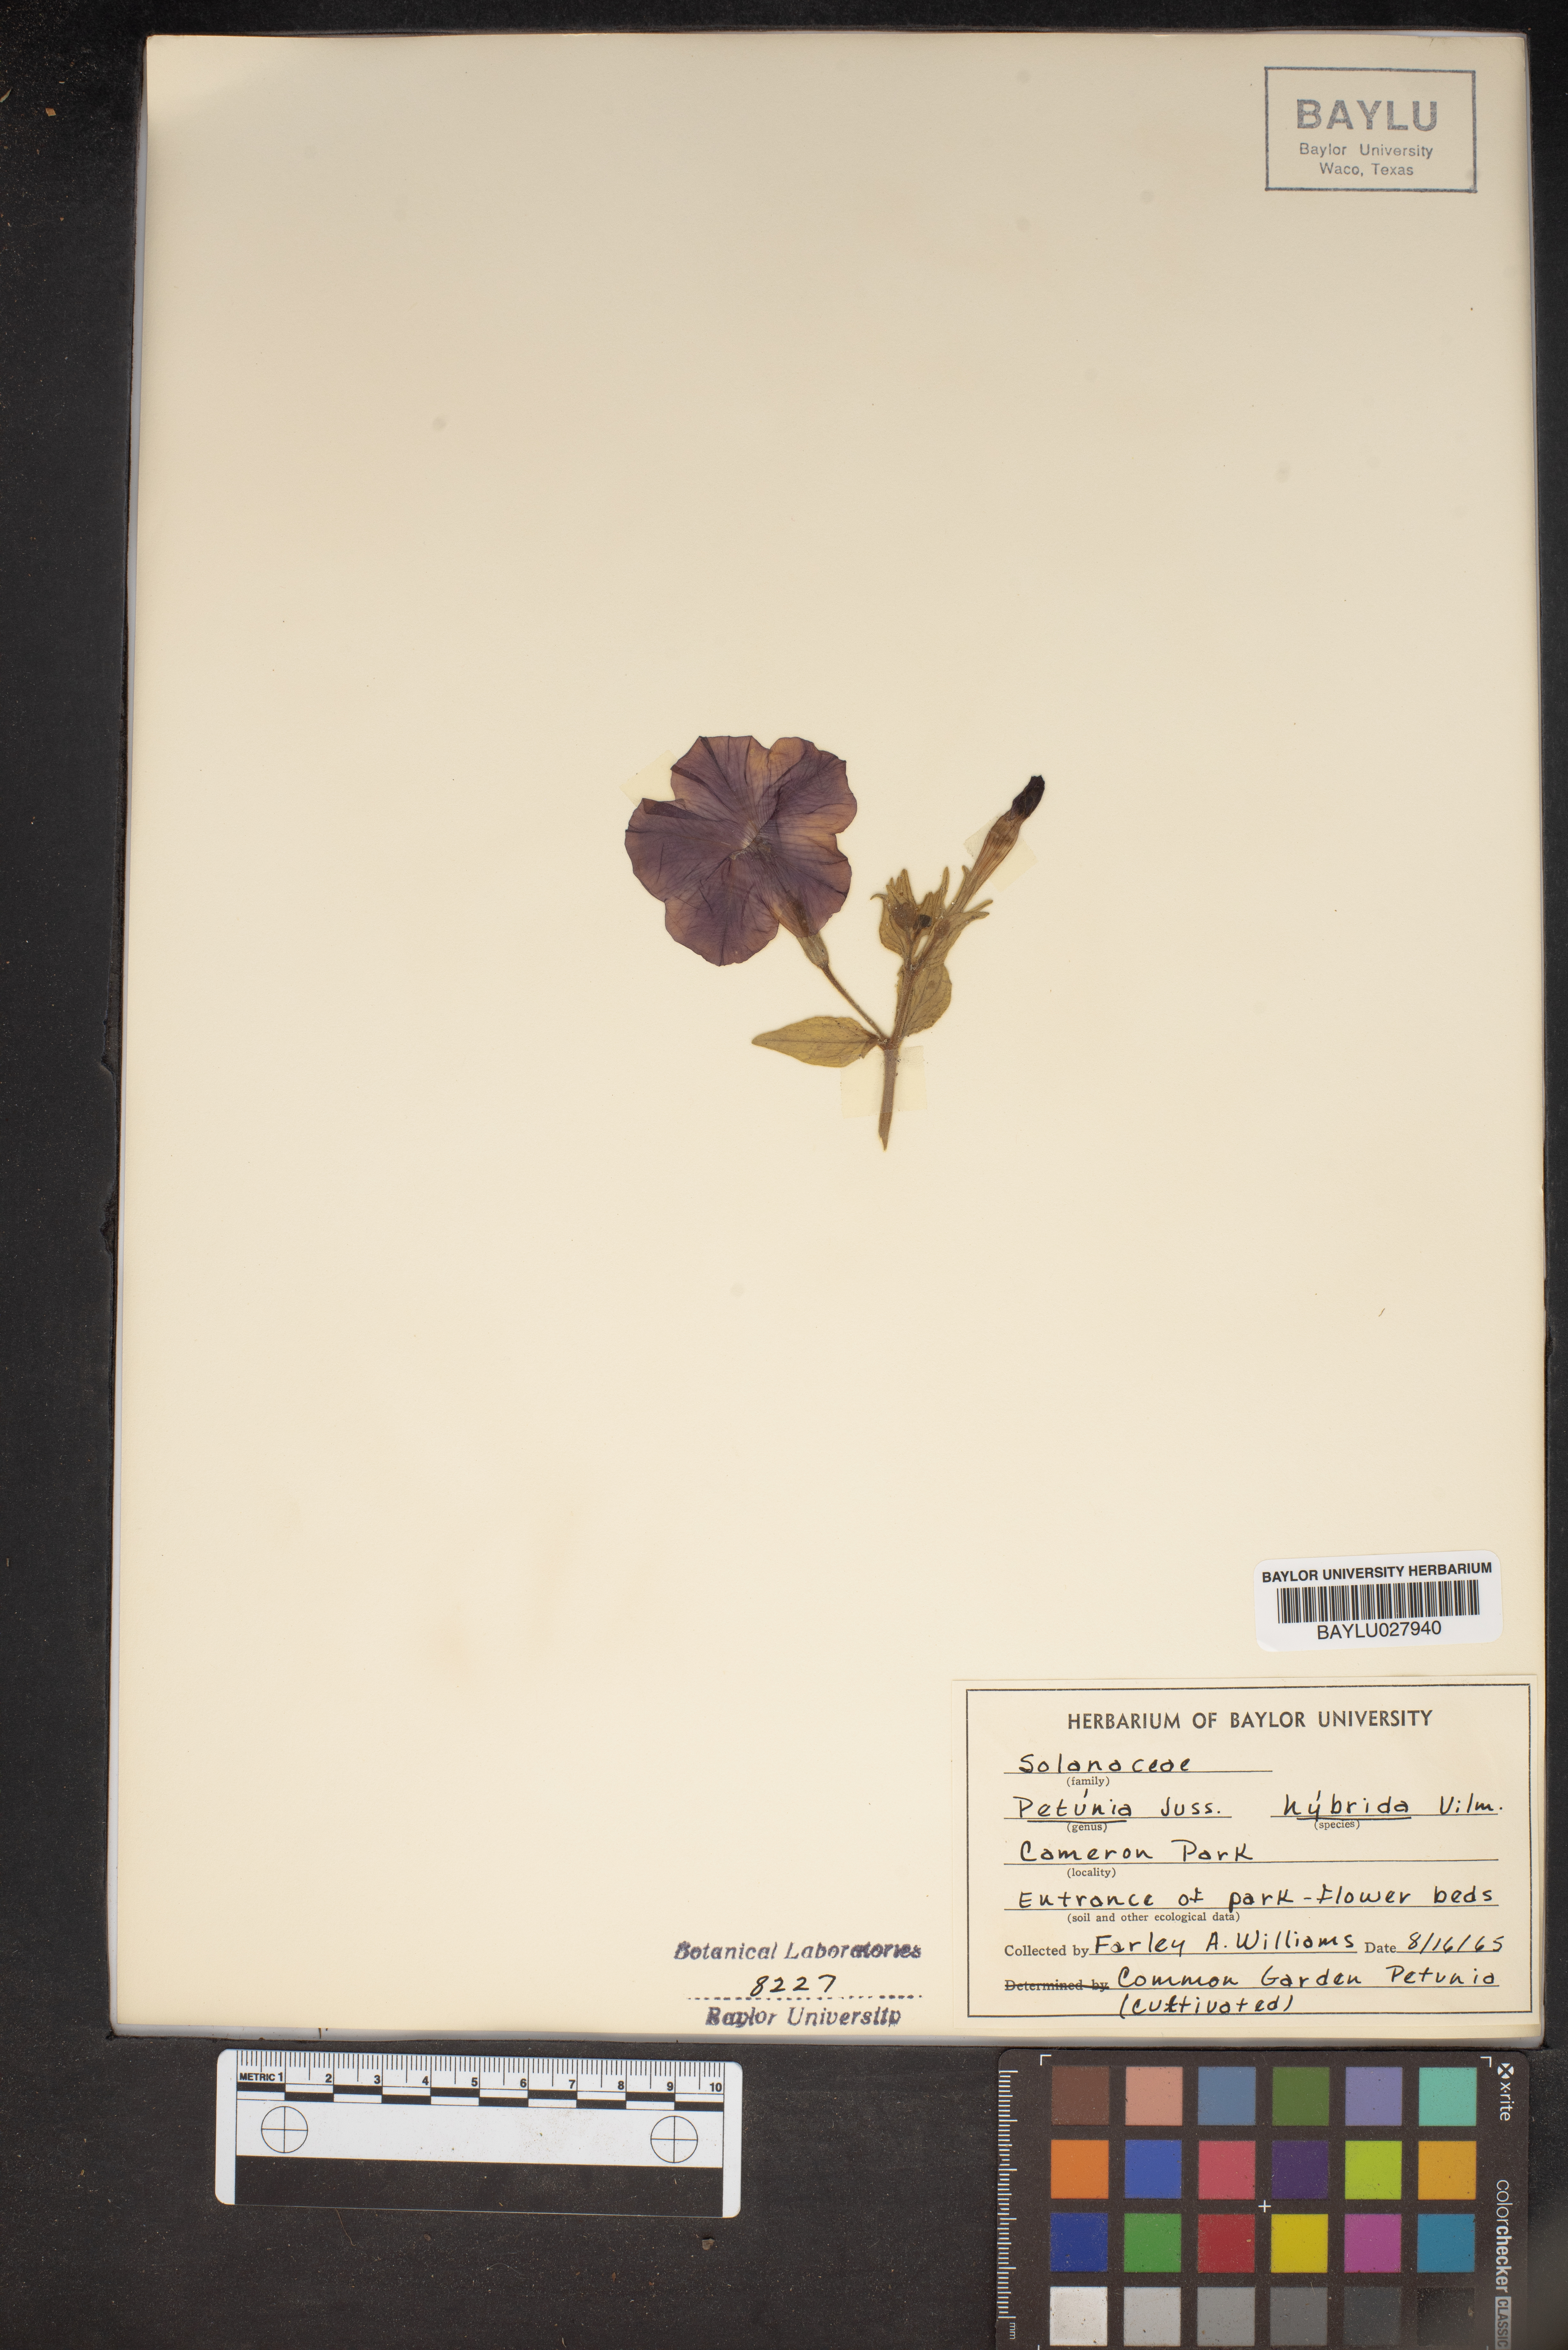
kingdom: Plantae
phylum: Tracheophyta
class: Magnoliopsida
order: Solanales
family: Solanaceae
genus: Petunia
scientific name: Petunia atkinsiana
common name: Petunia
